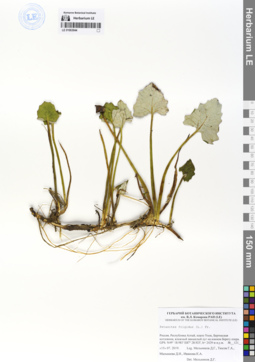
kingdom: Plantae
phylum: Tracheophyta
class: Magnoliopsida
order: Asterales
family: Asteraceae
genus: Petasites
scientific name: Petasites frigidus
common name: Arctic butterbur
